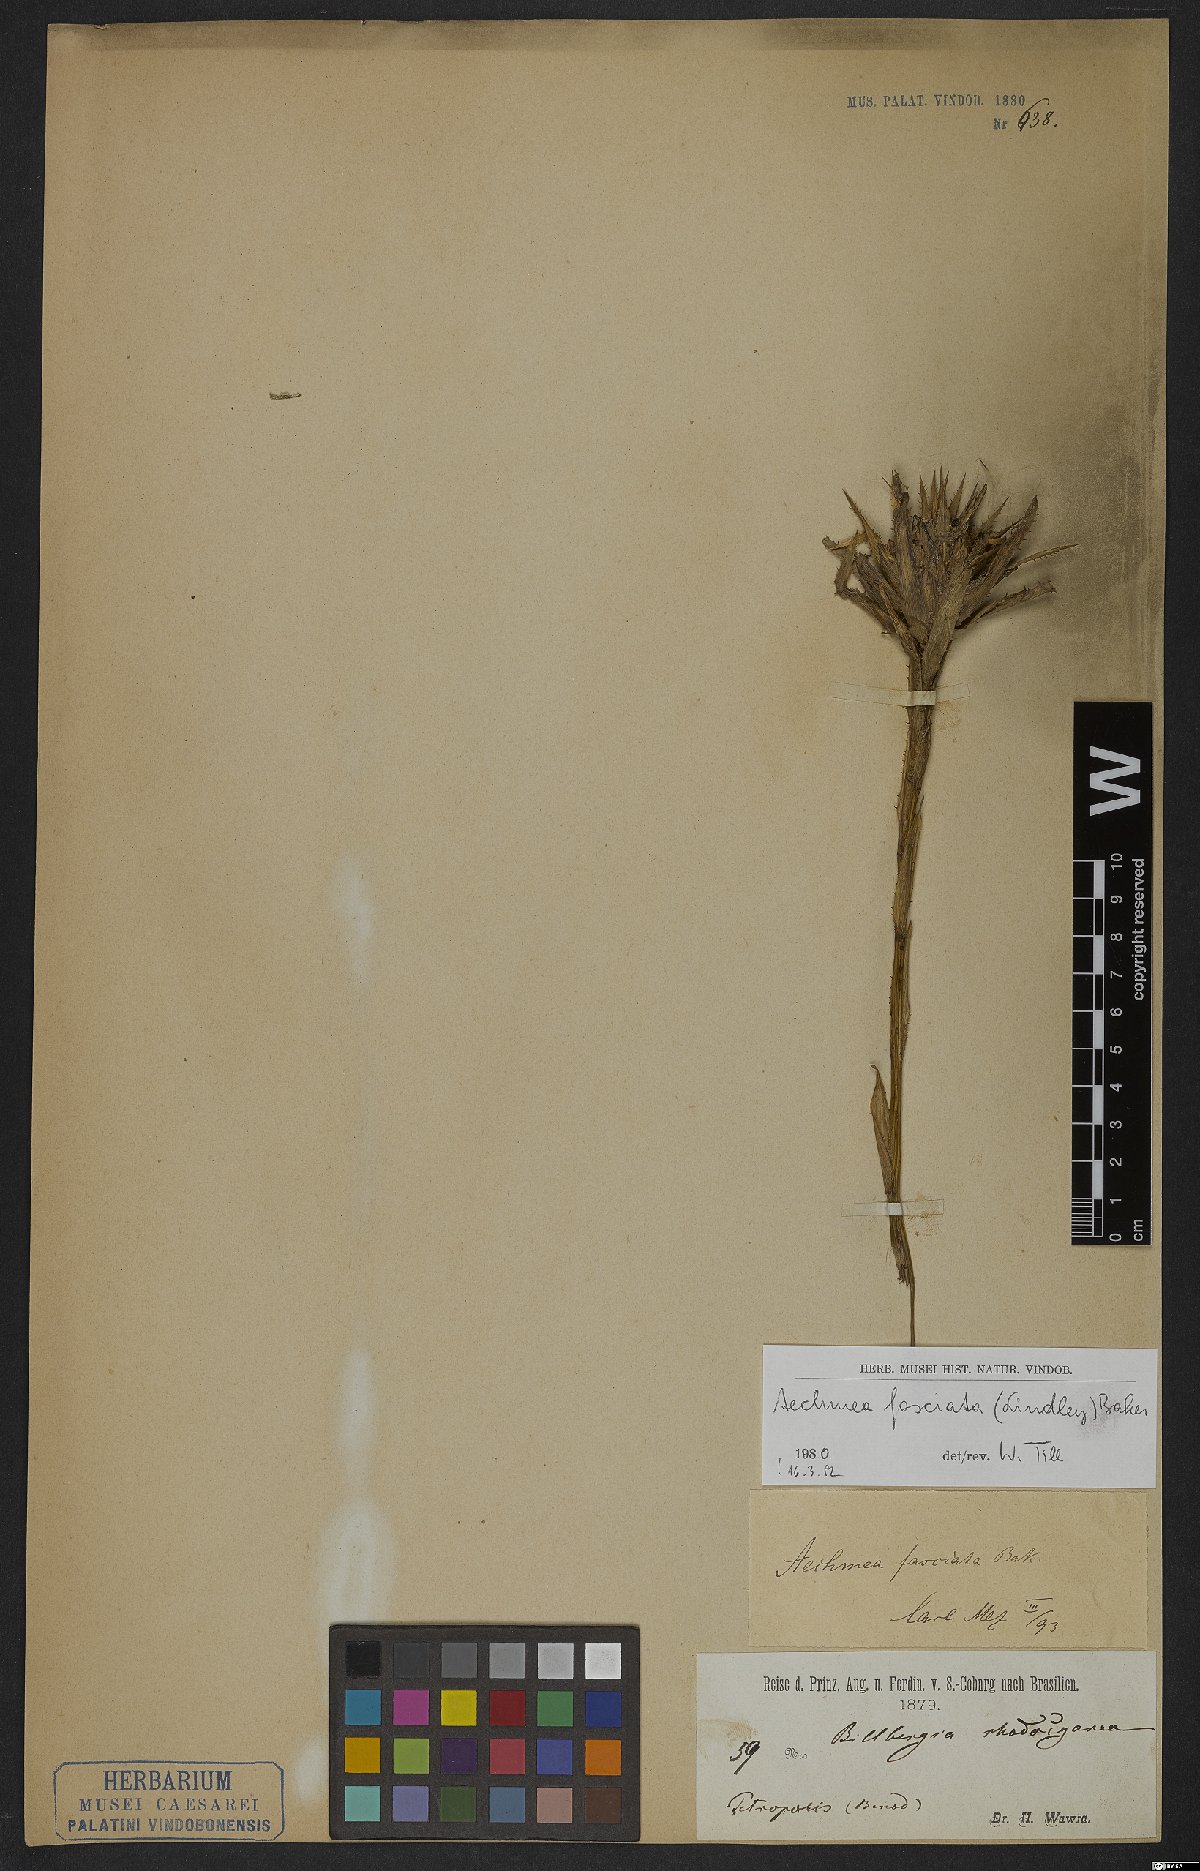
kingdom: Plantae
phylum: Tracheophyta
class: Liliopsida
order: Poales
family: Bromeliaceae
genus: Aechmea
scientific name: Aechmea fasciata
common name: Urnplant
